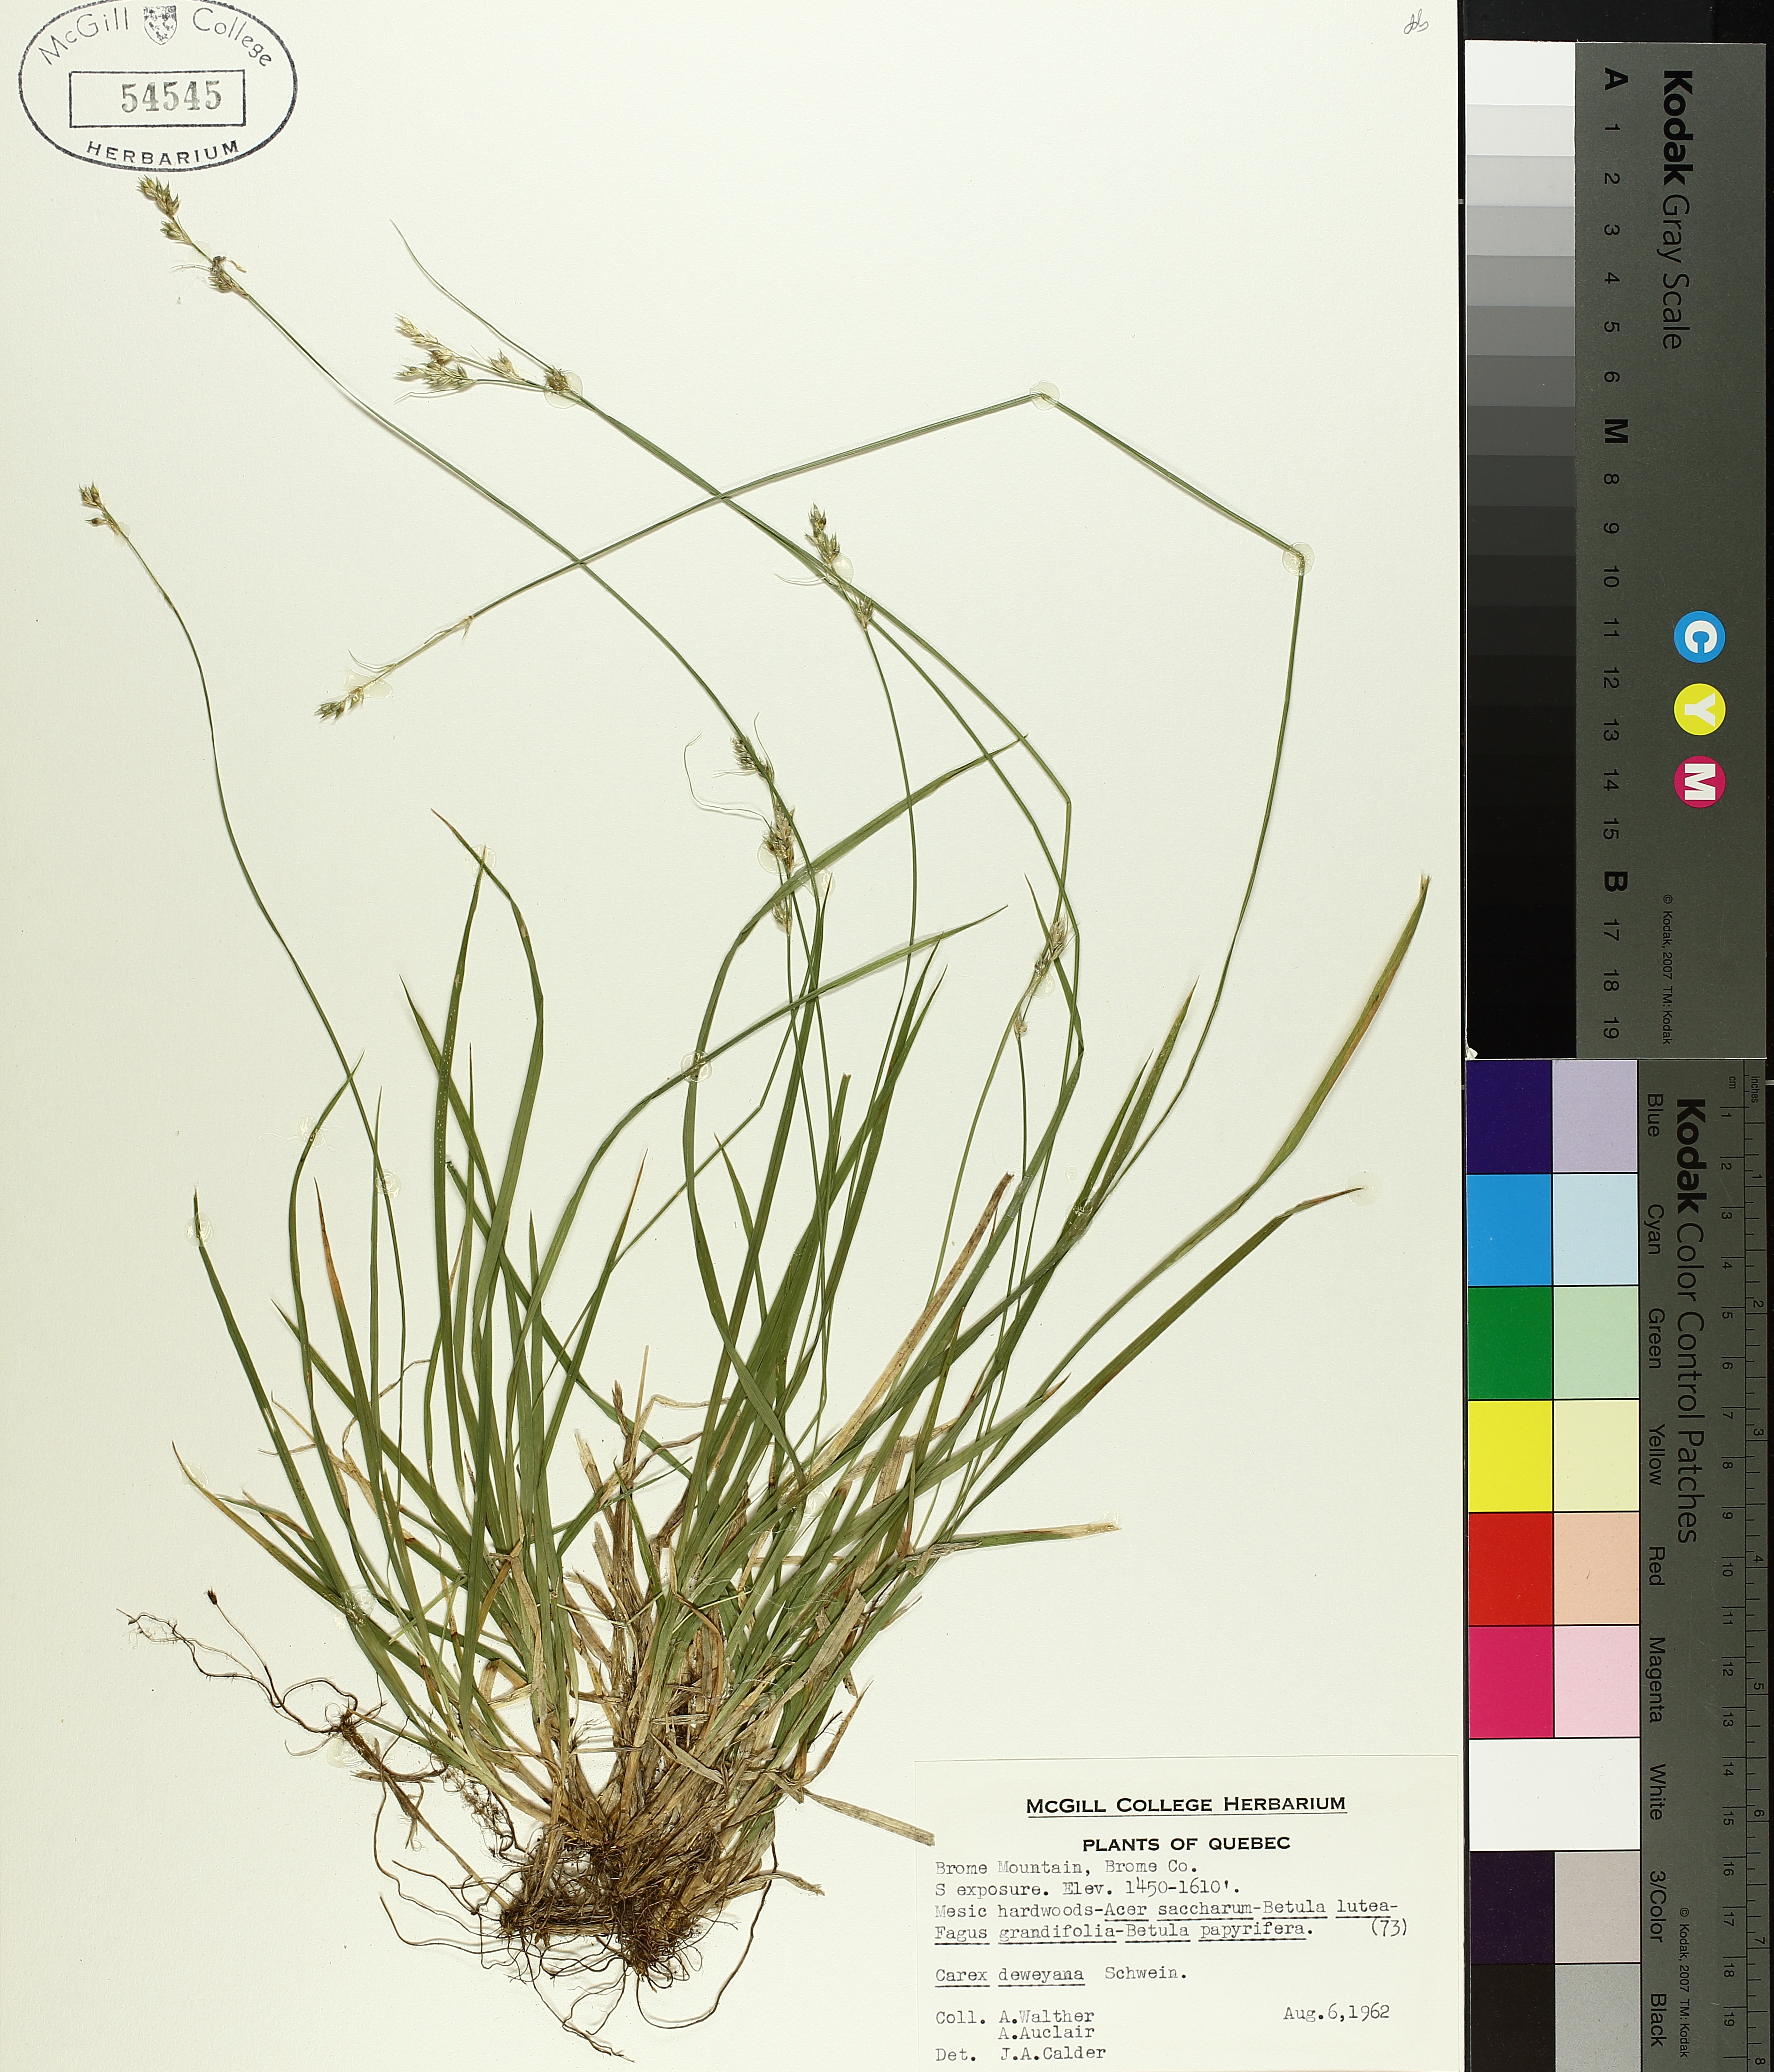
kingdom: Plantae
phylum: Tracheophyta
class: Liliopsida
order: Poales
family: Cyperaceae
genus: Carex
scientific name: Carex deweyana
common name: Dewey's sedge
